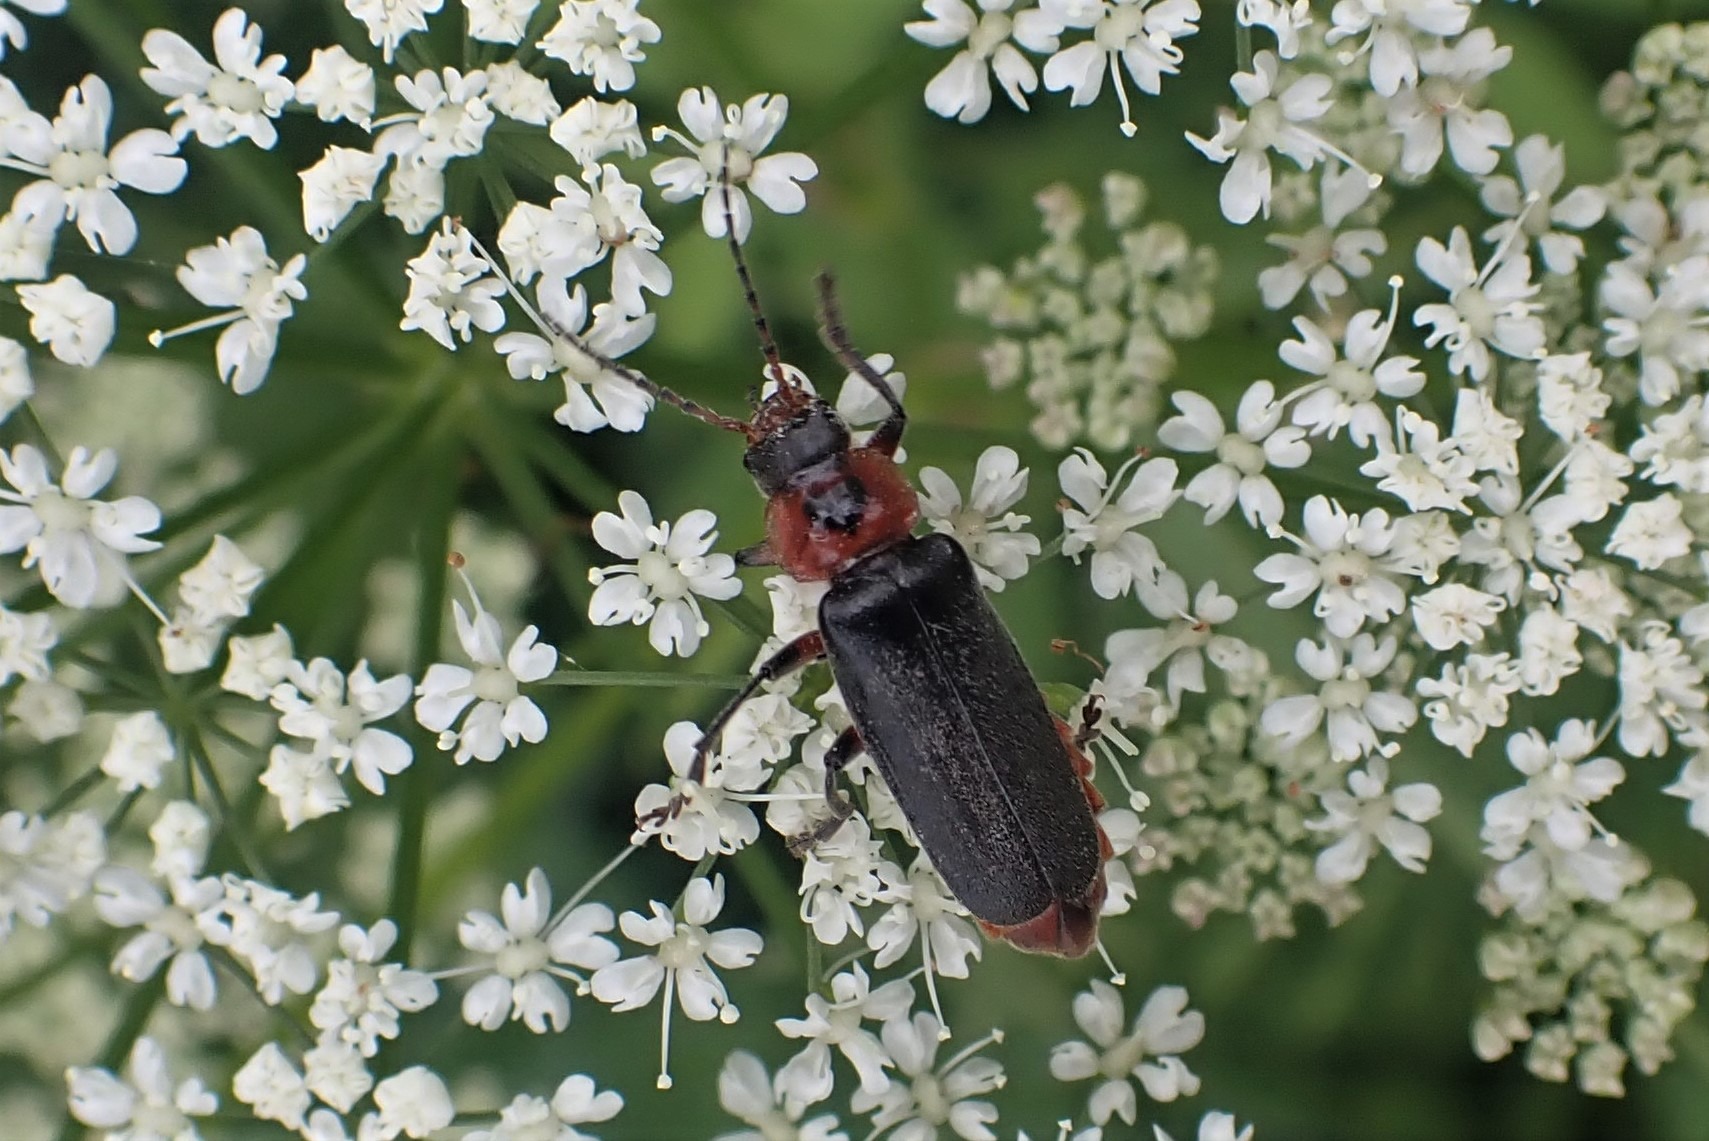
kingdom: Animalia
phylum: Arthropoda
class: Insecta
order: Coleoptera
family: Cantharidae
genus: Cantharis
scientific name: Cantharis rustica
